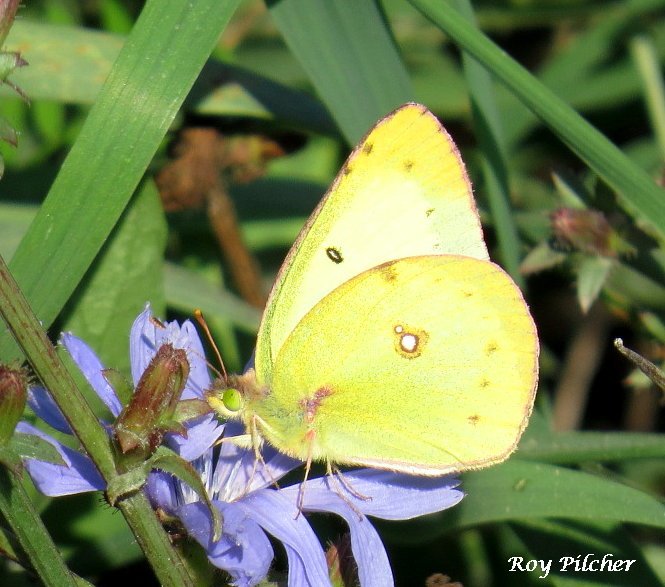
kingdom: Animalia
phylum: Arthropoda
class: Insecta
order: Lepidoptera
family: Pieridae
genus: Colias
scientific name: Colias philodice
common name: Clouded Sulphur
